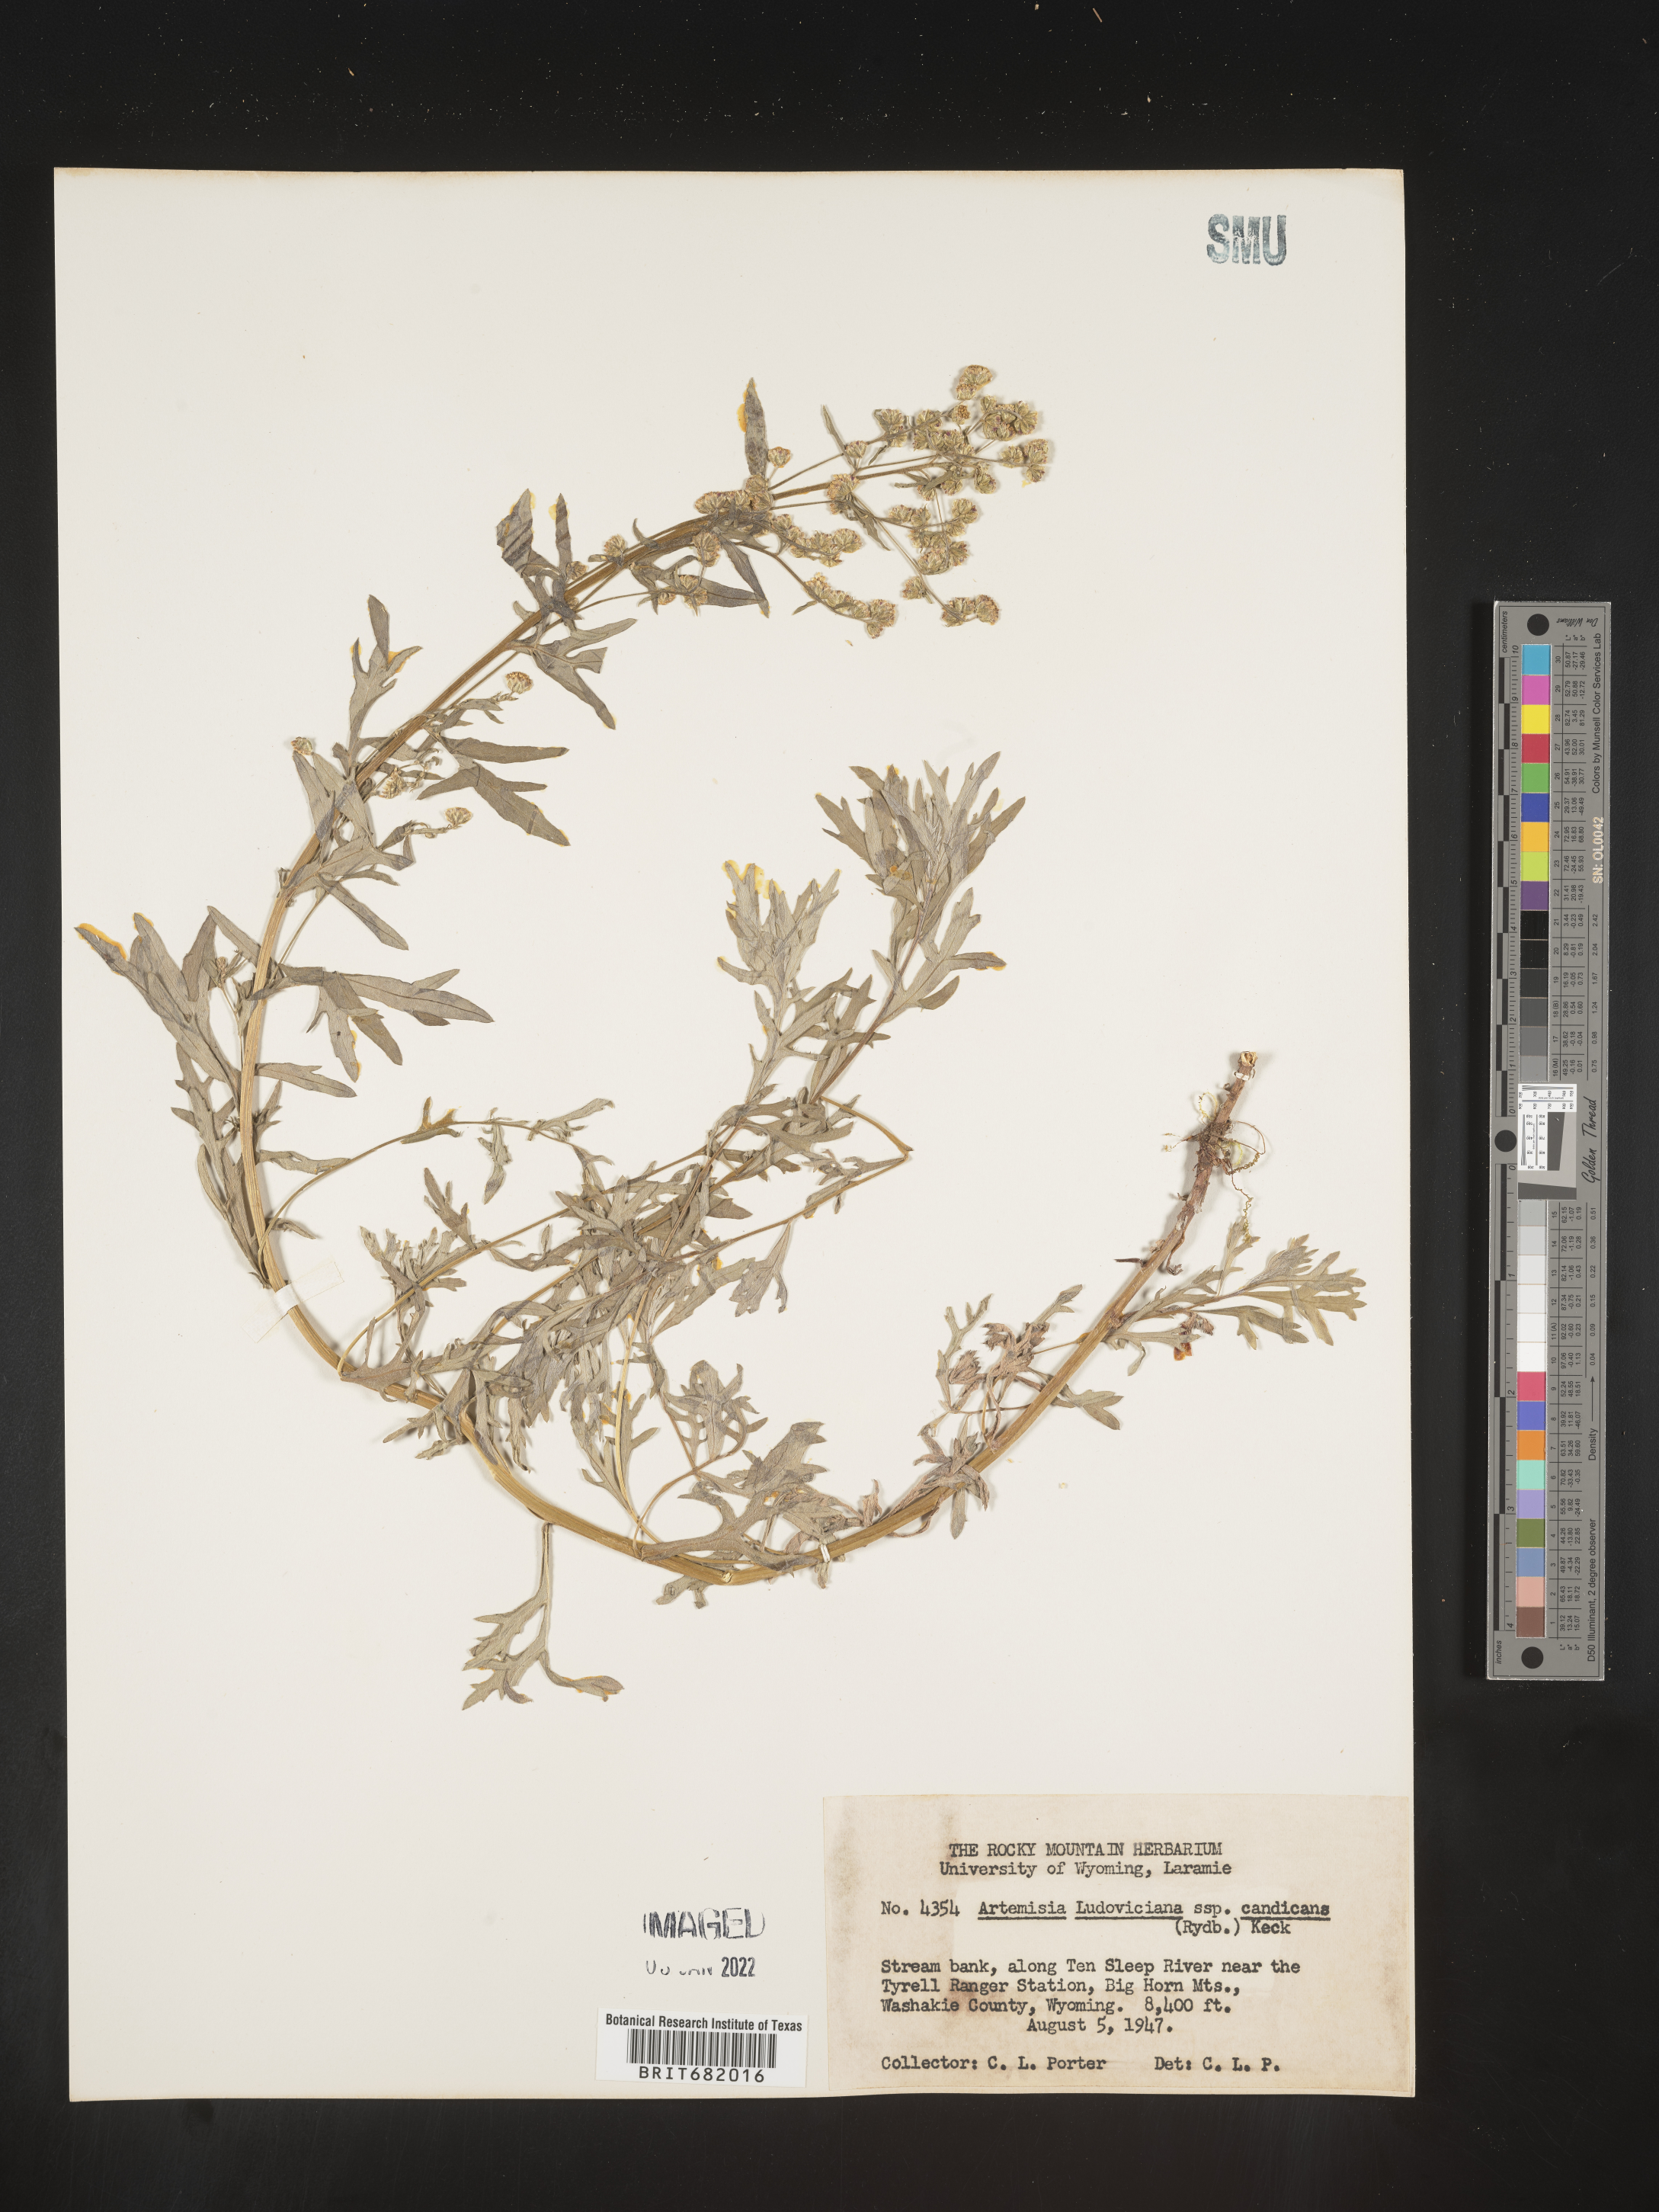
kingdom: Plantae
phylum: Tracheophyta
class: Magnoliopsida
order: Asterales
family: Asteraceae
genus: Artemisia
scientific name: Artemisia ludoviciana
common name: Western mugwort
